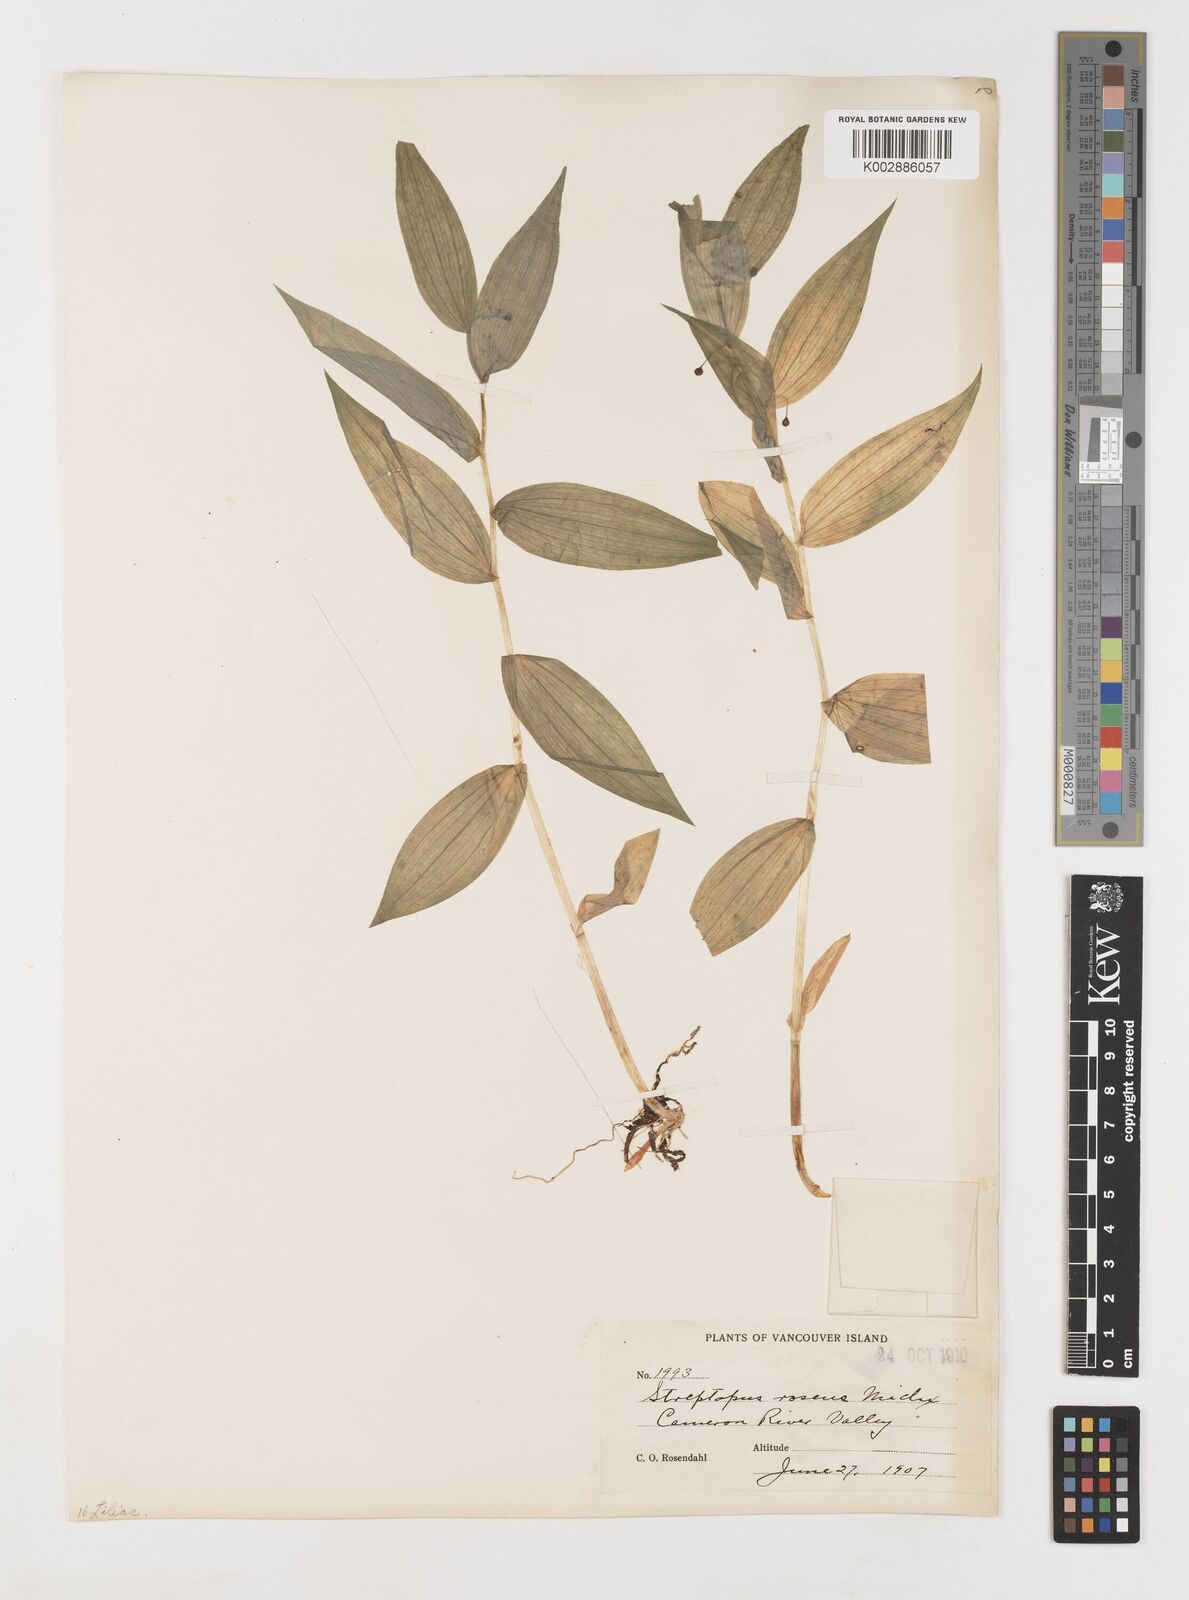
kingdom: Plantae
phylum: Tracheophyta
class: Liliopsida
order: Liliales
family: Liliaceae
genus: Streptopus
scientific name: Streptopus lanceolatus
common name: Rose mandarin
